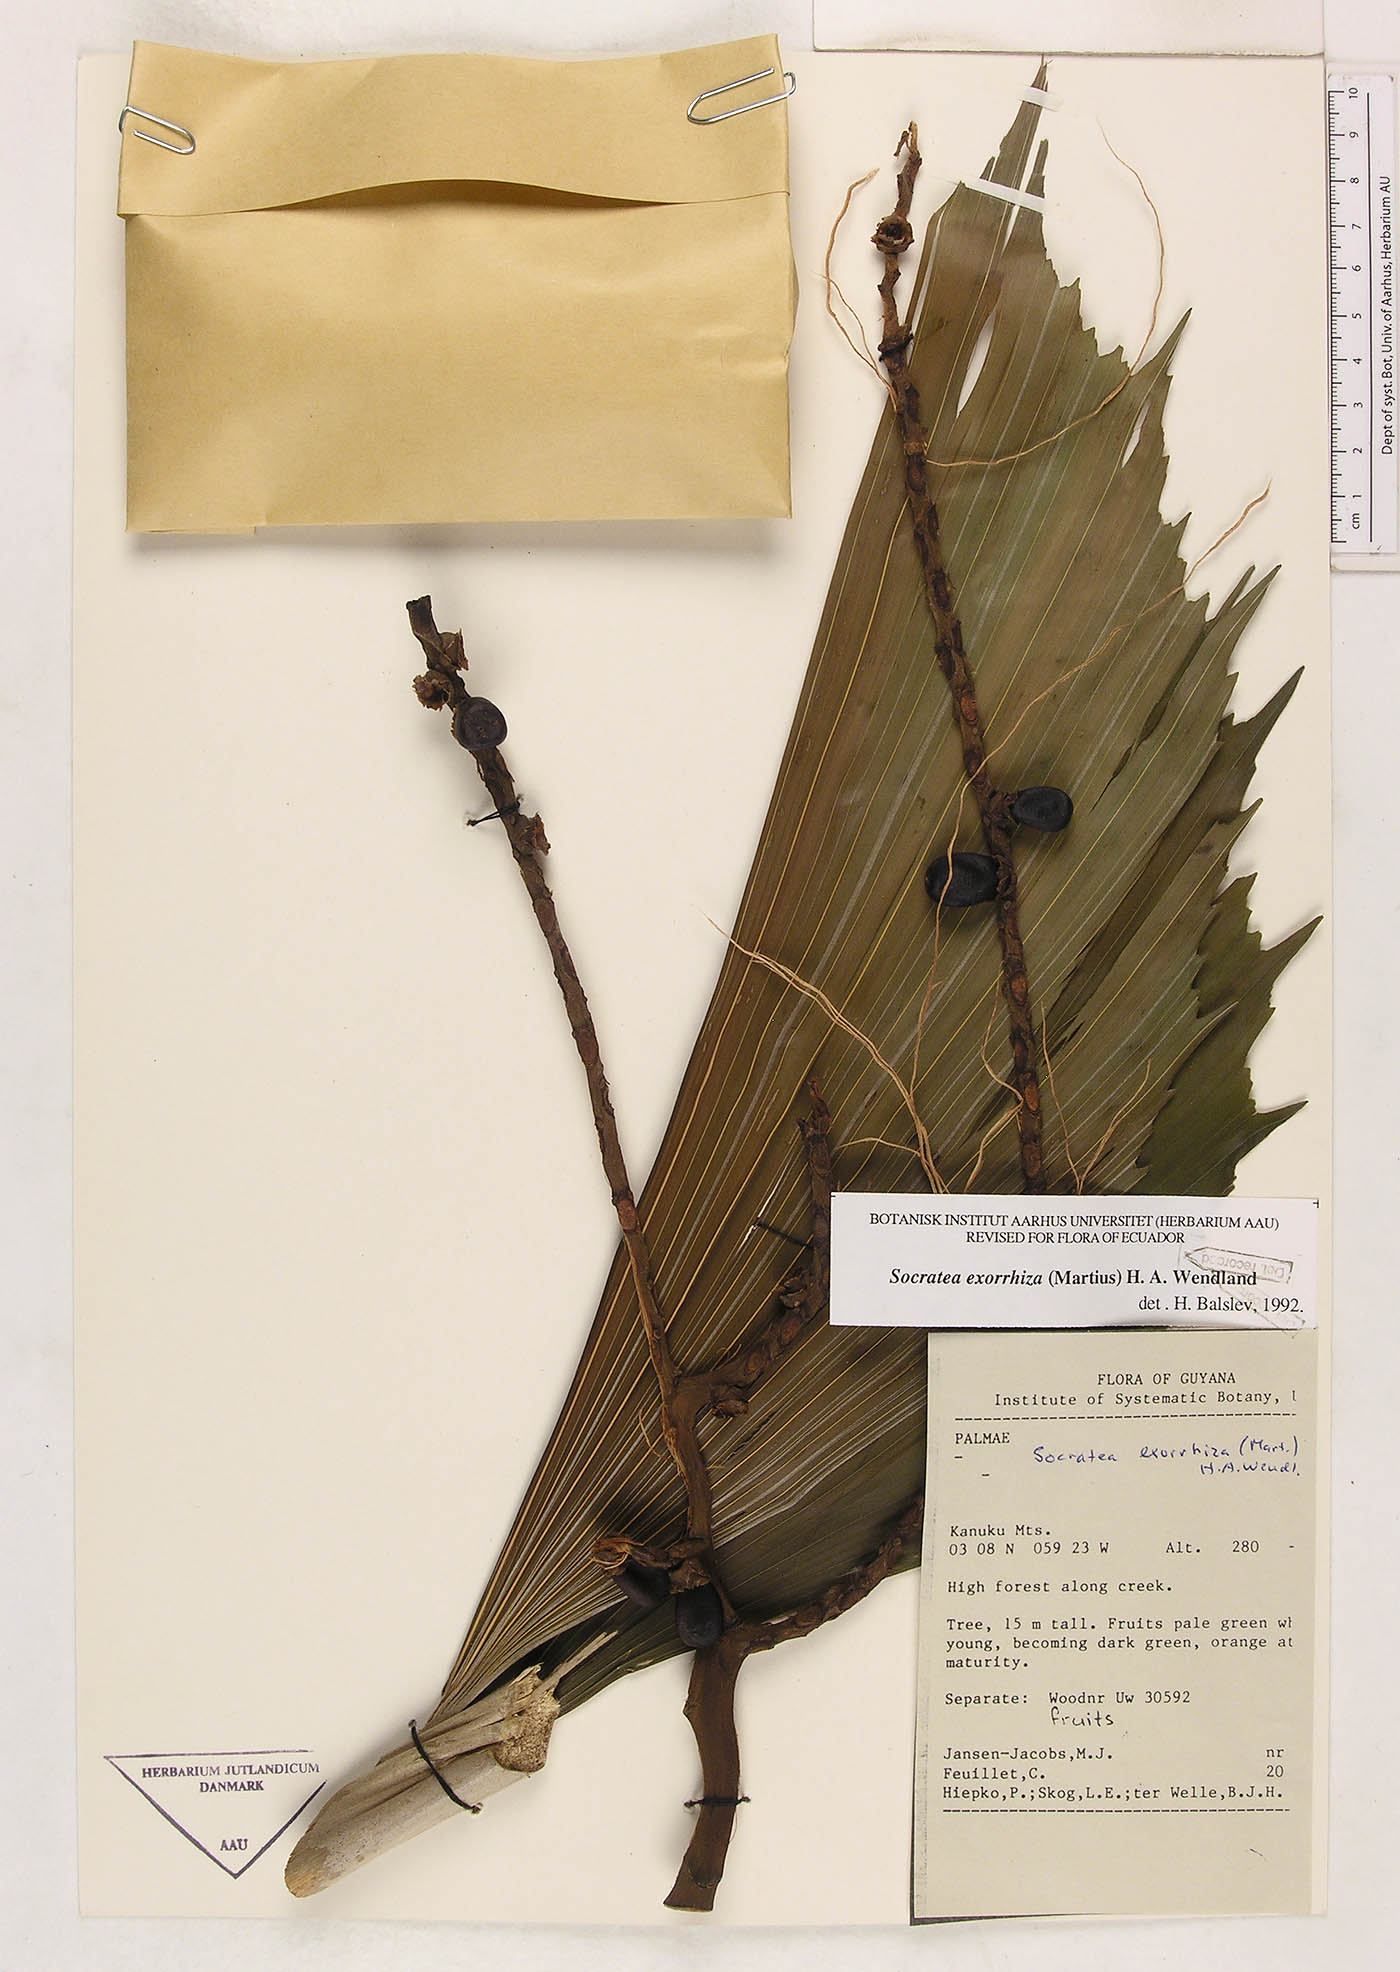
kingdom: Plantae
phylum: Tracheophyta
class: Liliopsida
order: Arecales
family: Arecaceae
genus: Socratea
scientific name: Socratea exorrhiza
